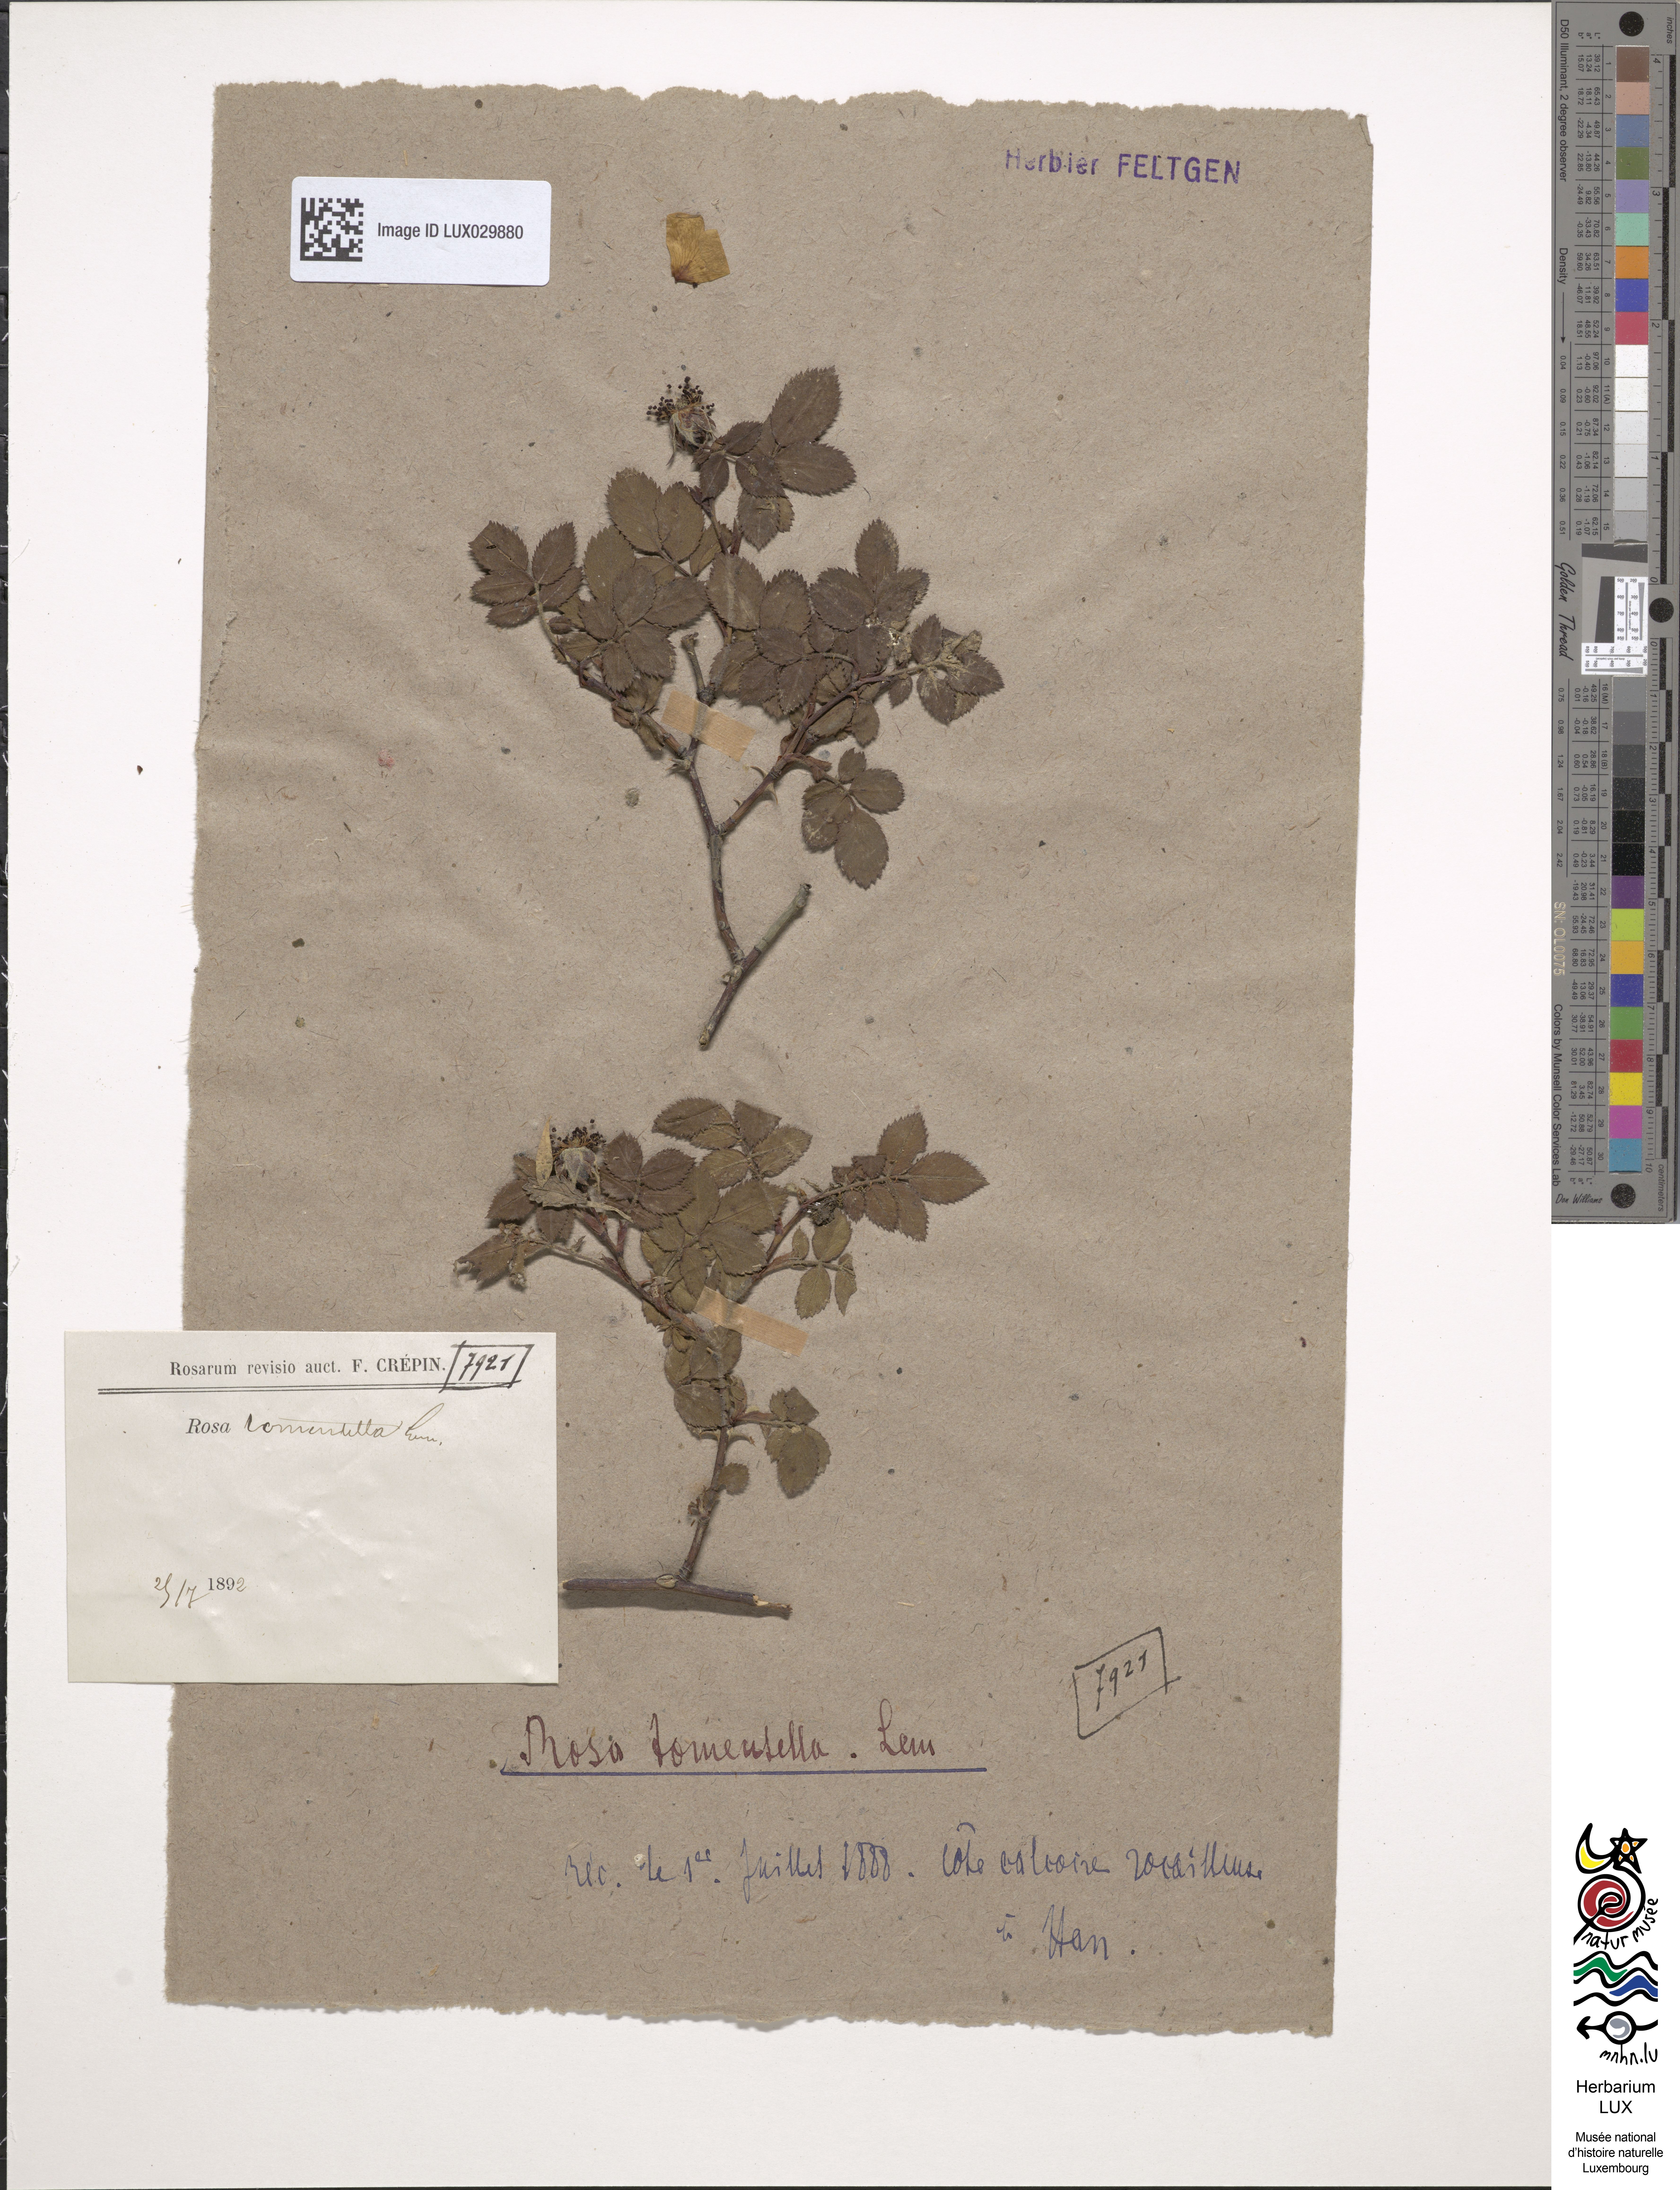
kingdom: Plantae
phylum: Tracheophyta
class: Magnoliopsida
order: Rosales
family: Rosaceae
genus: Rosa
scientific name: Rosa balsamica
